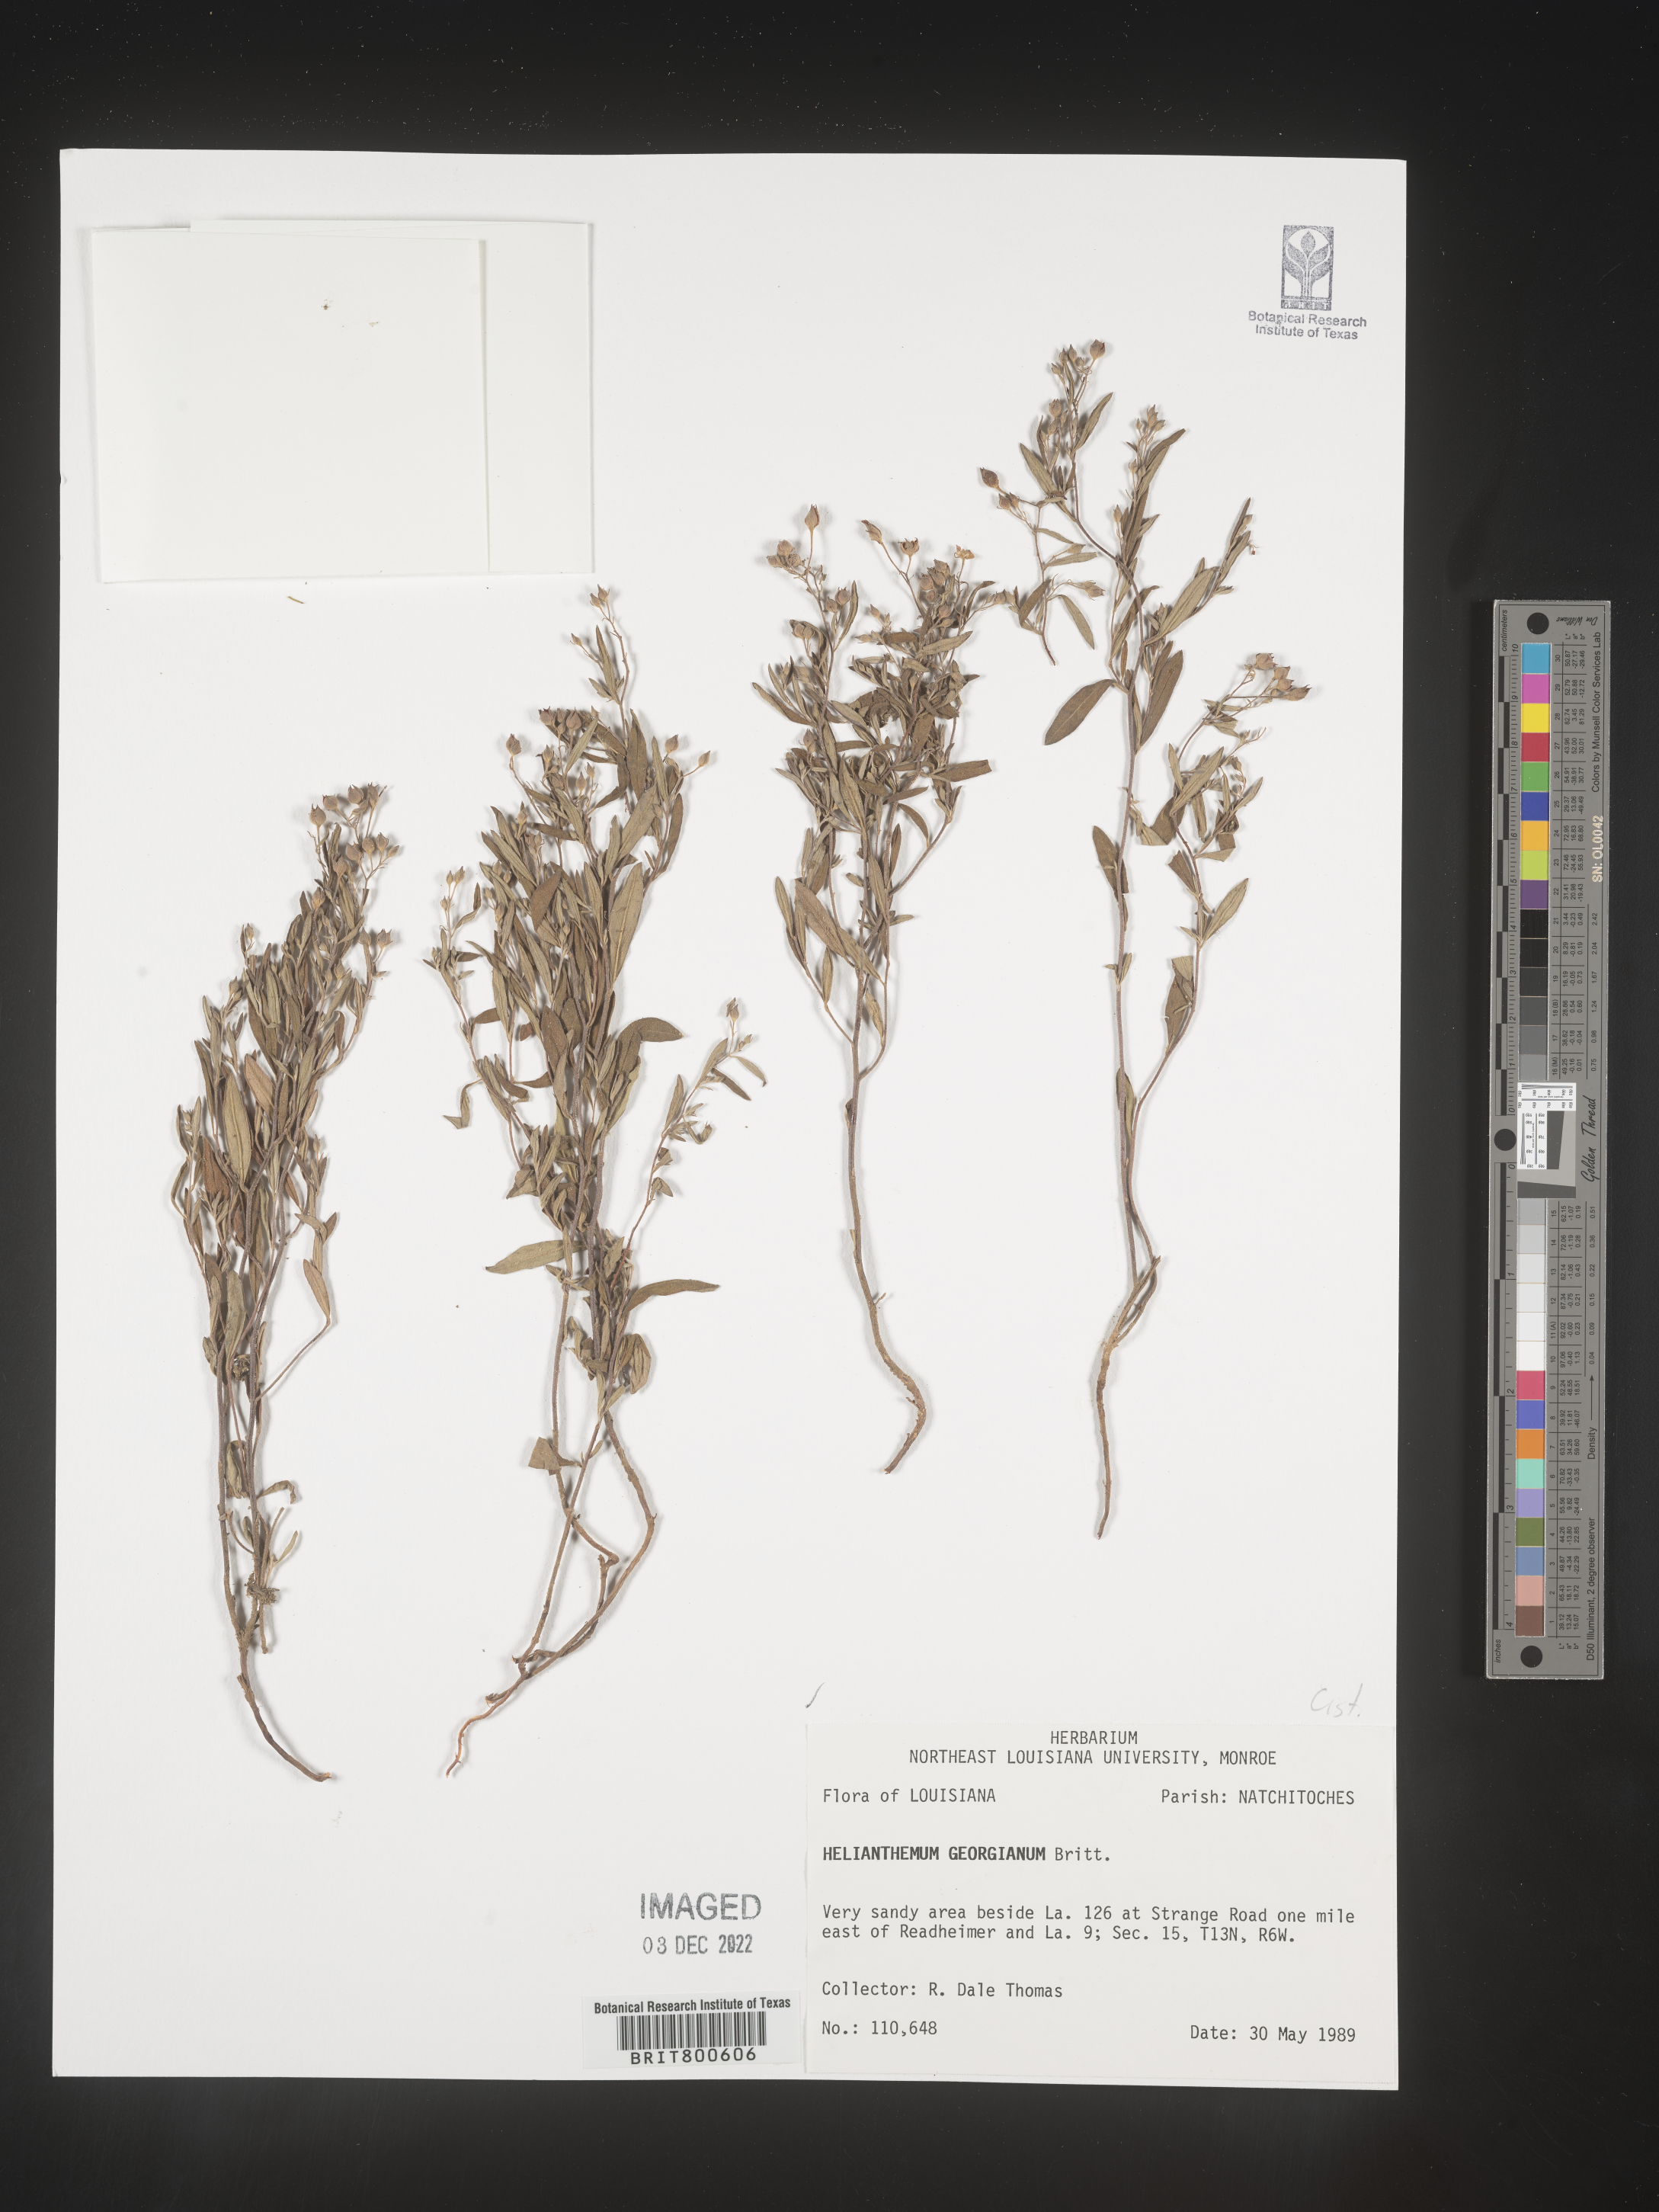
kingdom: Plantae
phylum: Tracheophyta
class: Magnoliopsida
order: Malvales
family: Cistaceae
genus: Crocanthemum
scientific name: Crocanthemum georgianum
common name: Georgia frostweed
